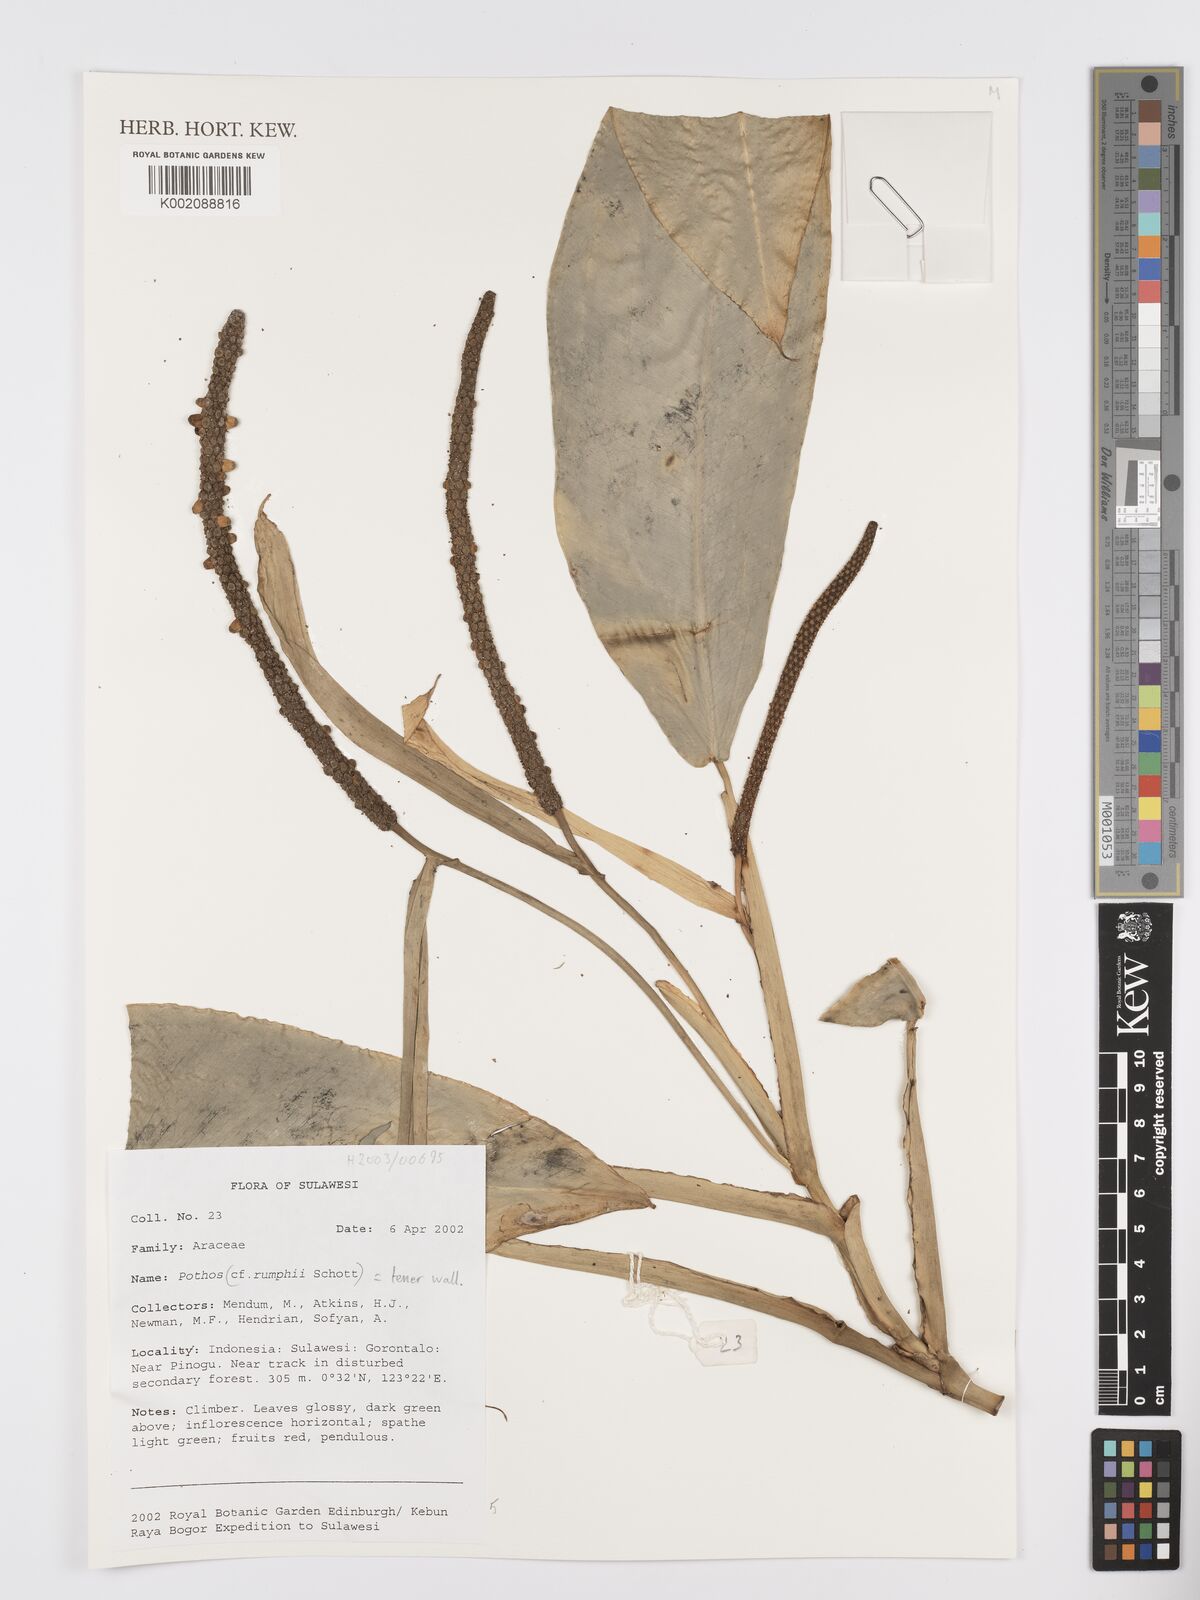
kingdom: Plantae
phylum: Tracheophyta
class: Liliopsida
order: Alismatales
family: Araceae
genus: Pothos
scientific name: Pothos tener
